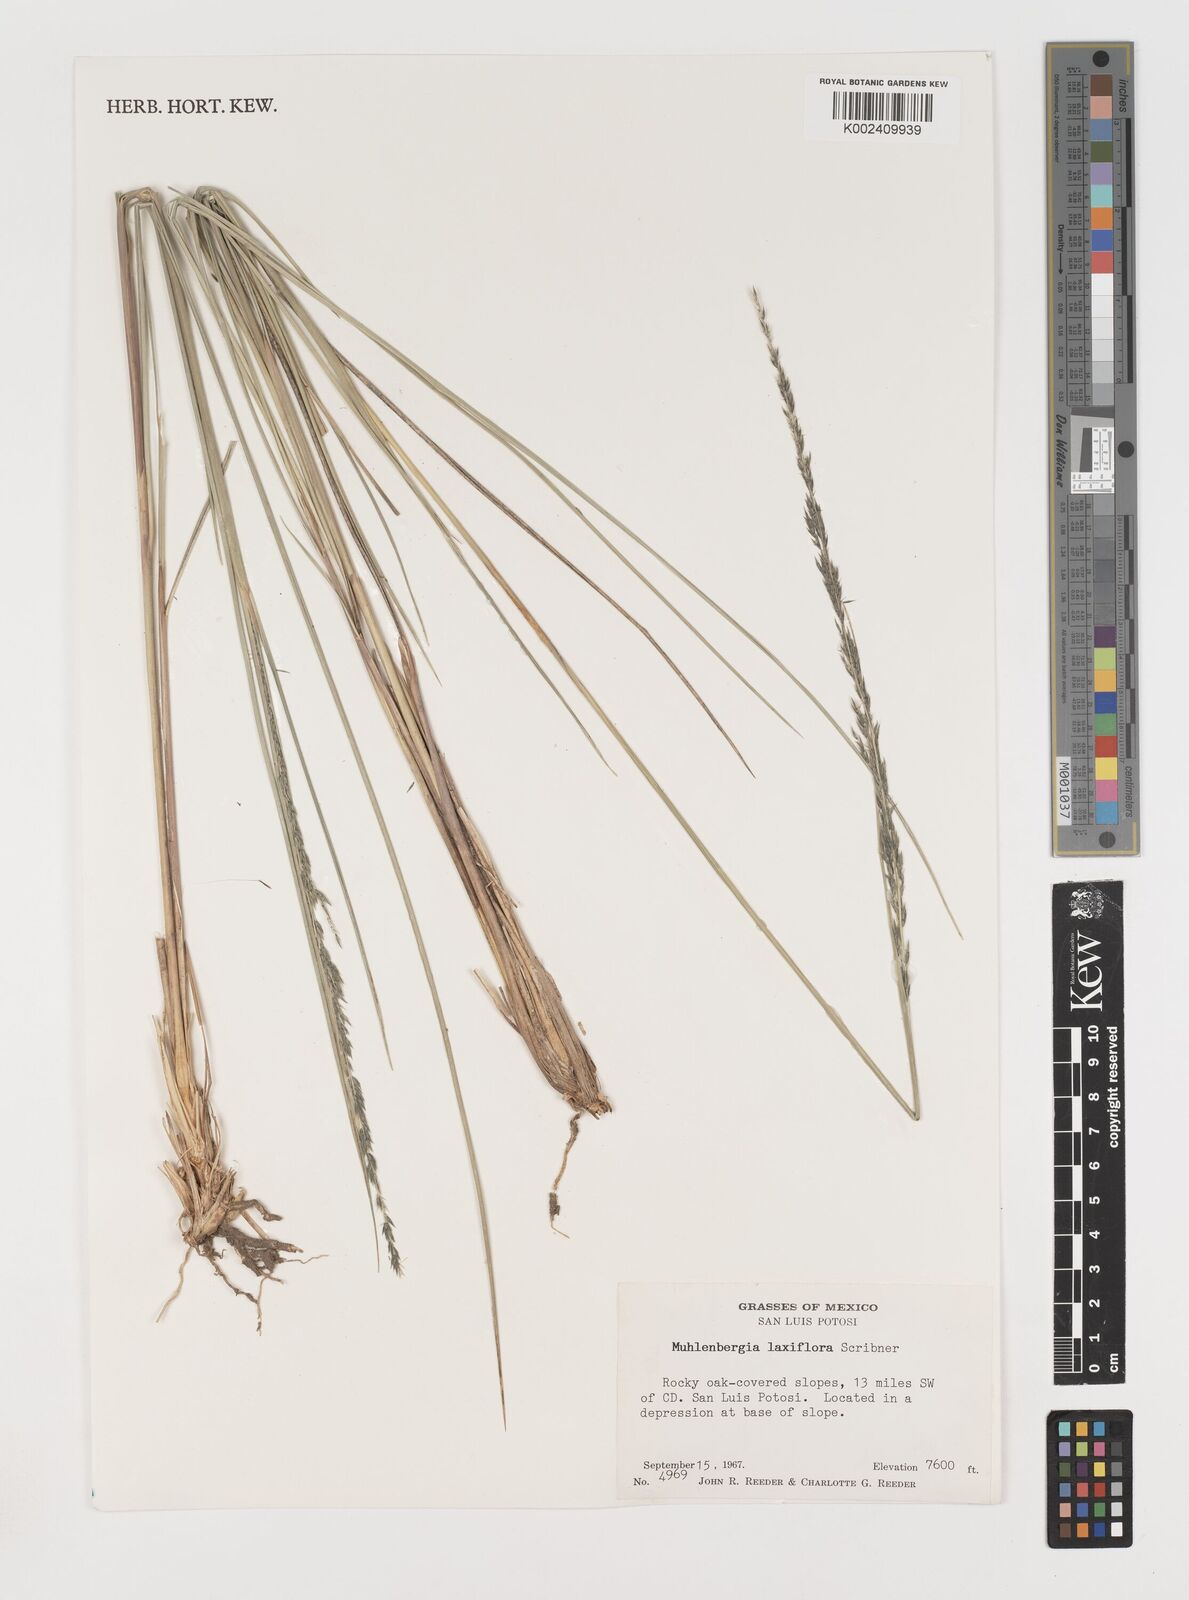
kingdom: Plantae
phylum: Tracheophyta
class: Liliopsida
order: Poales
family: Poaceae
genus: Muhlenbergia
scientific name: Muhlenbergia mucronata
